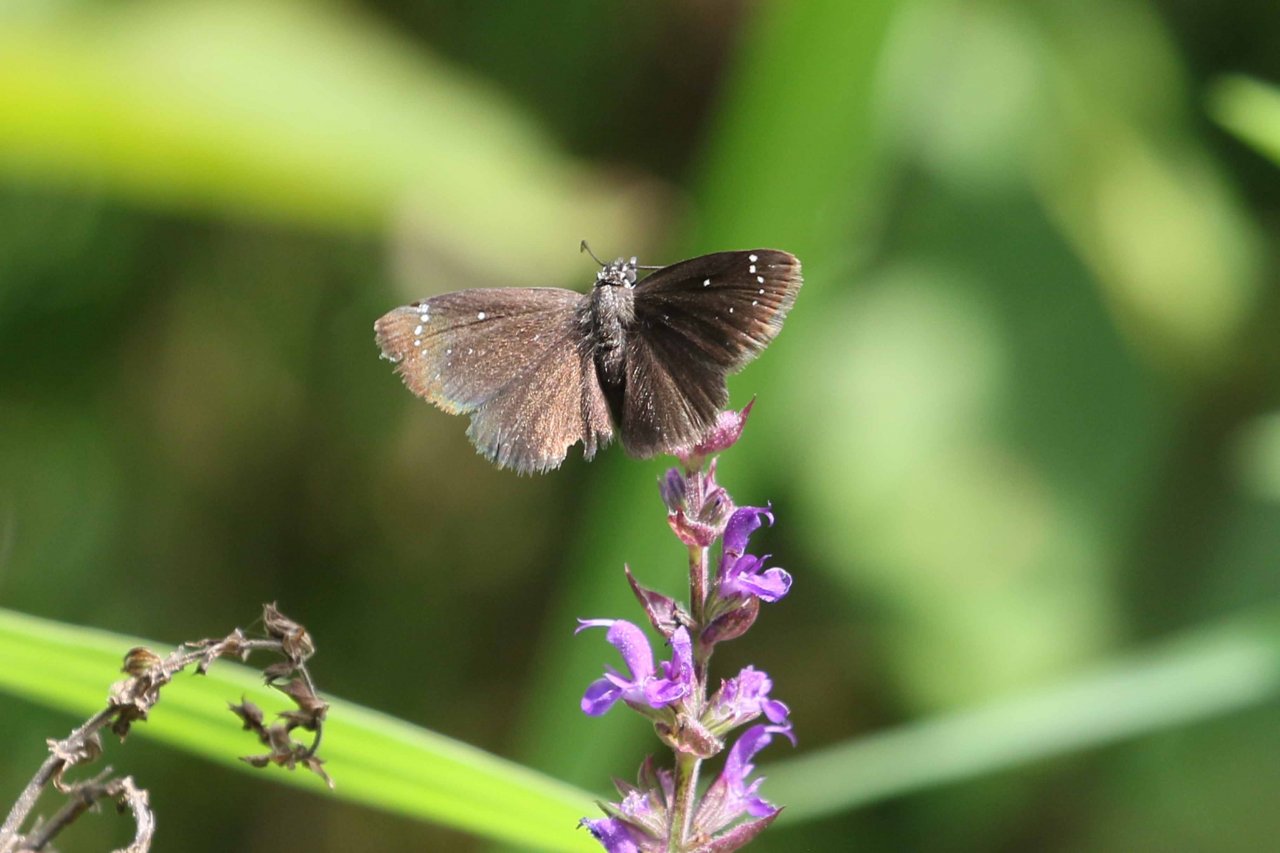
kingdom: Animalia
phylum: Arthropoda
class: Insecta
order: Lepidoptera
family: Hesperiidae
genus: Pholisora
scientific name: Pholisora catullus
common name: Common Sootywing
